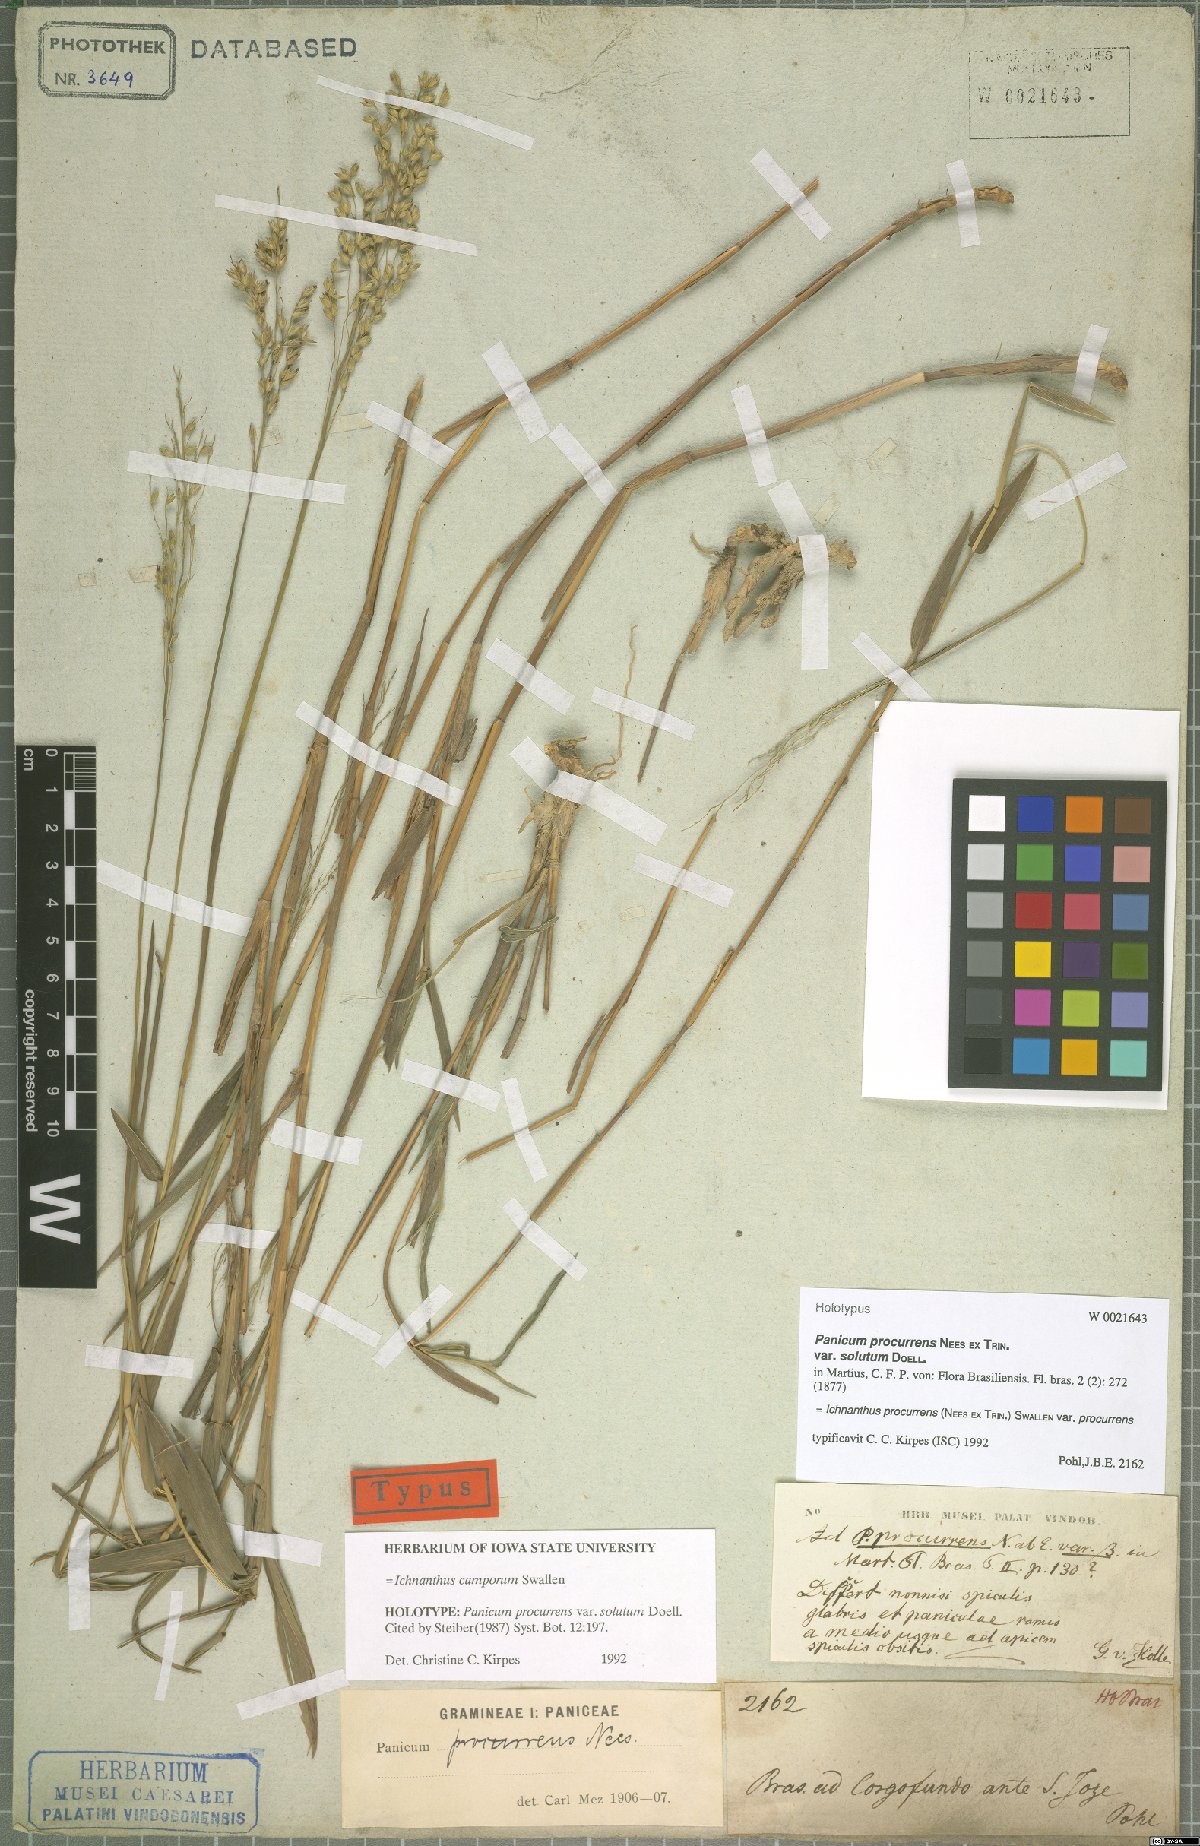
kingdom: Plantae
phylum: Tracheophyta
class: Liliopsida
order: Poales
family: Poaceae
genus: Oedochloa
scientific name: Oedochloa camporum
